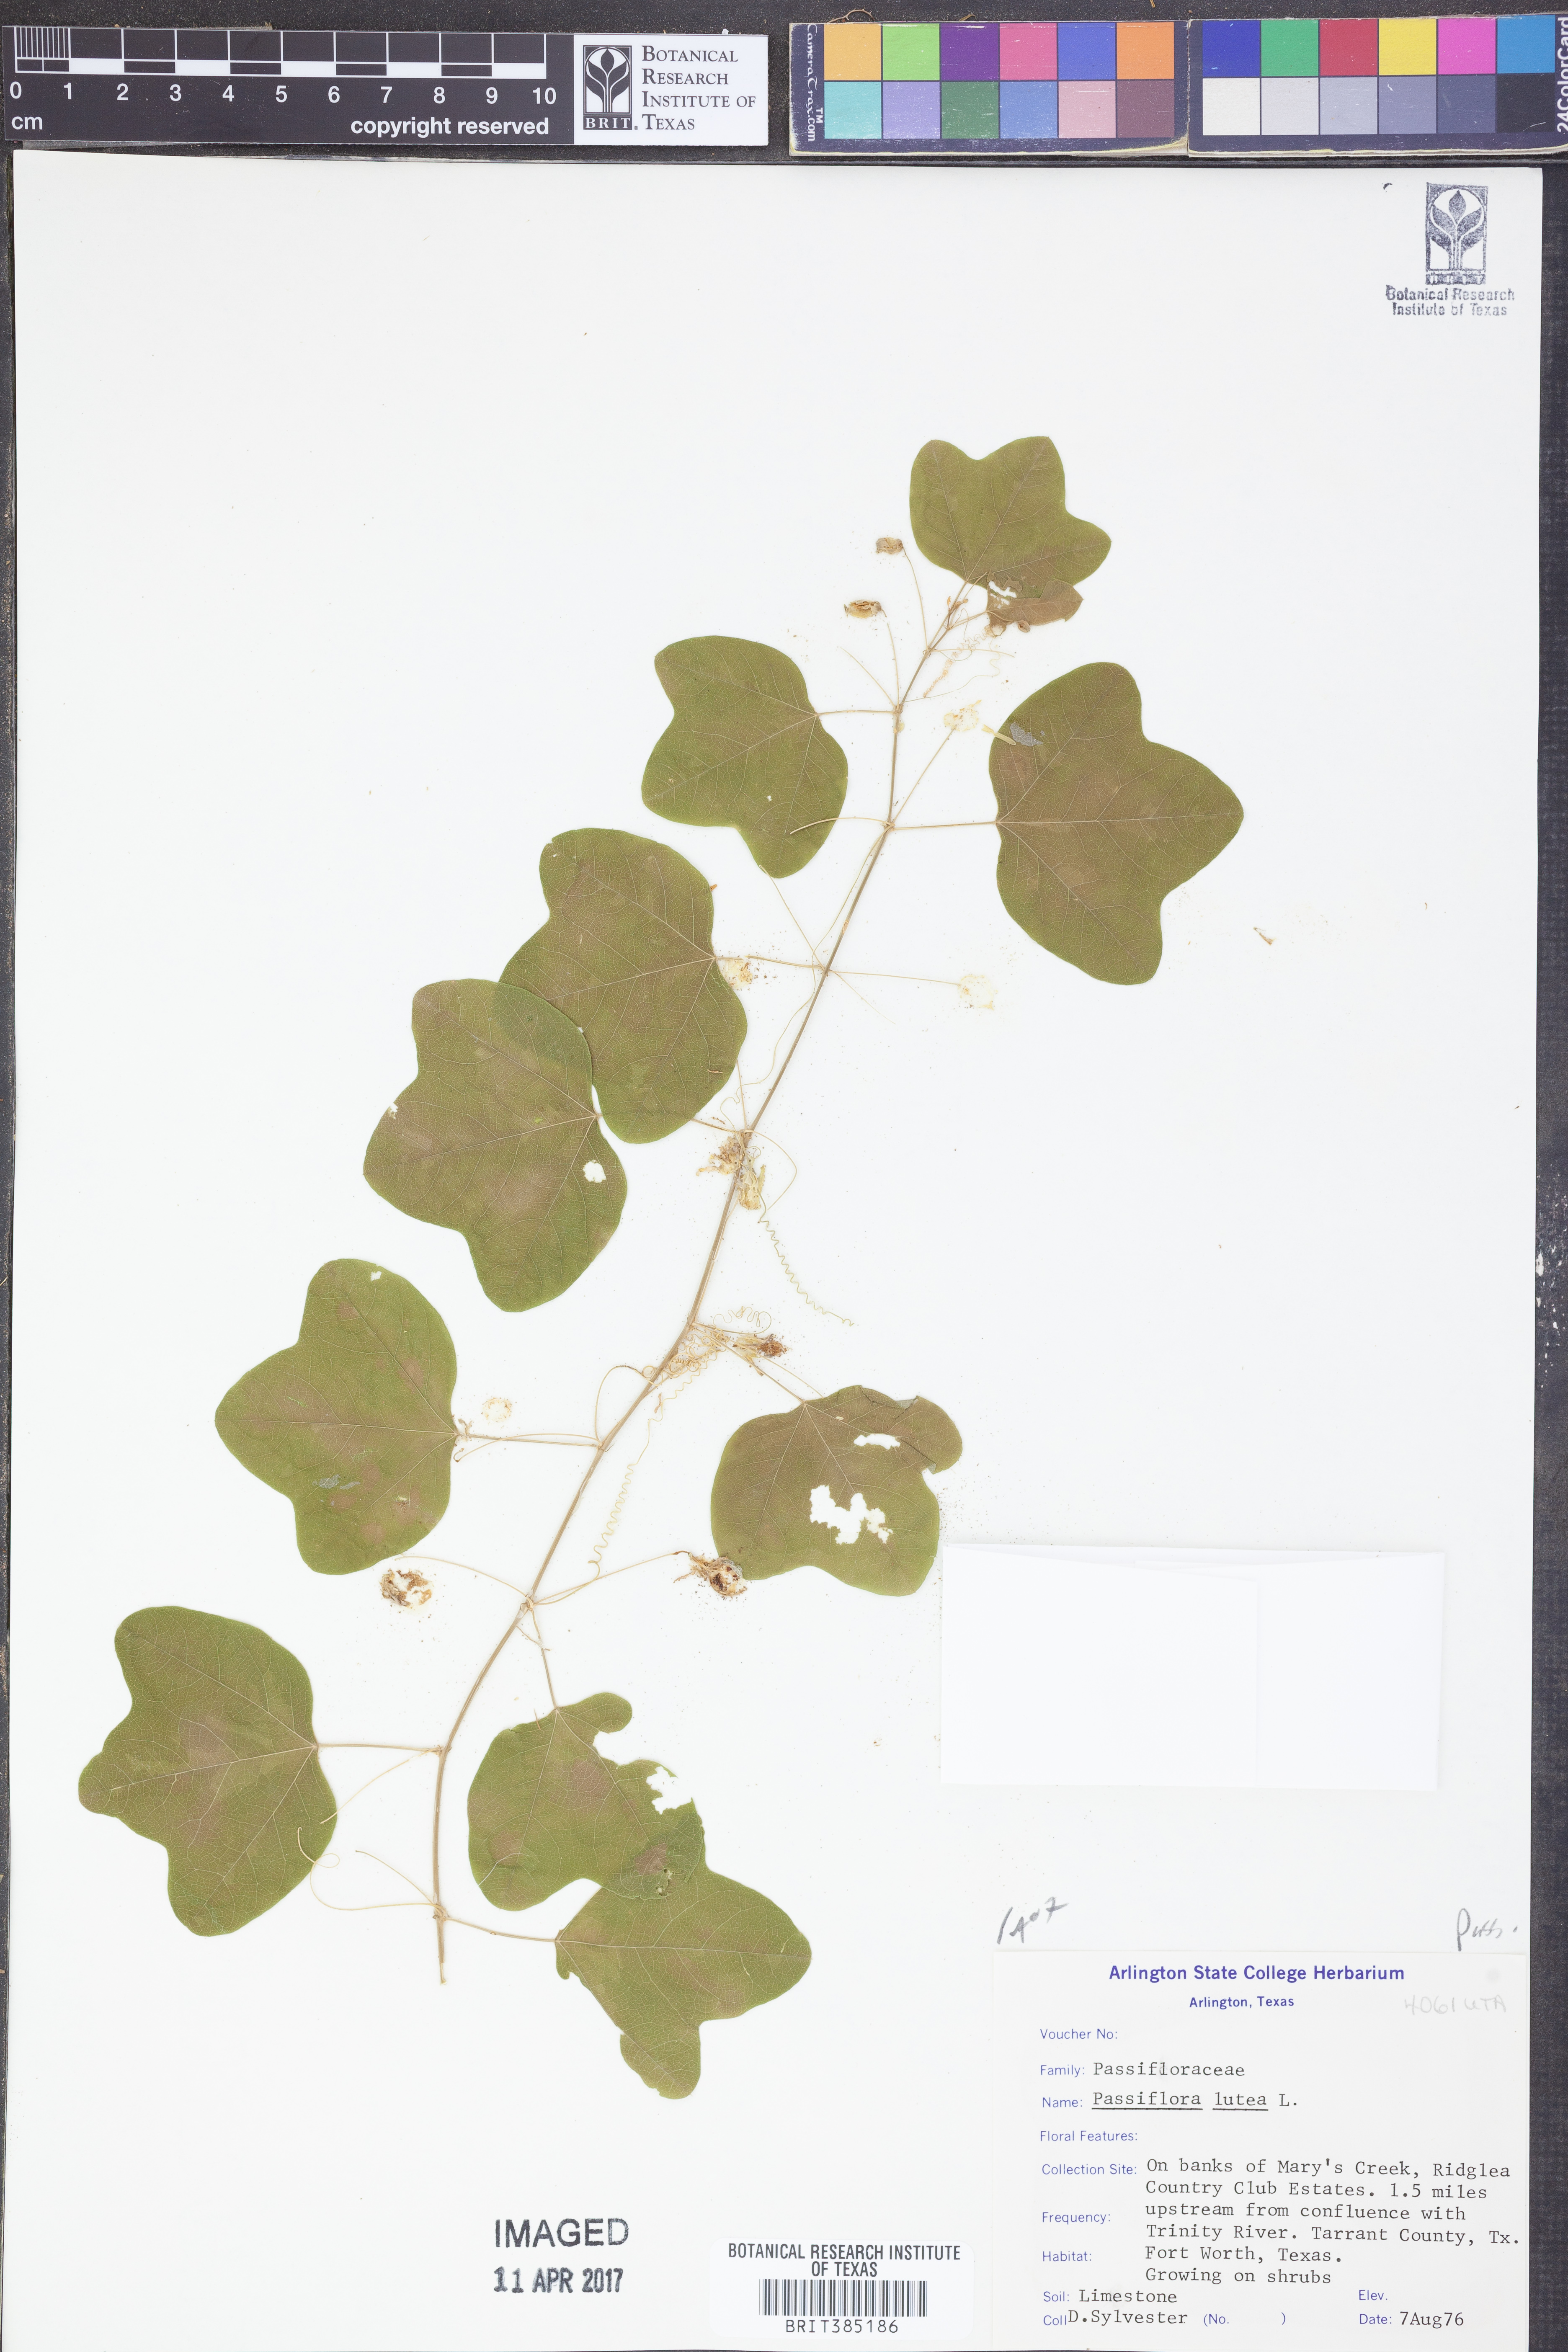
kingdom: Plantae
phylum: Tracheophyta
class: Magnoliopsida
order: Malpighiales
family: Passifloraceae
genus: Passiflora
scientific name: Passiflora lutea
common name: Yellow passionflower
